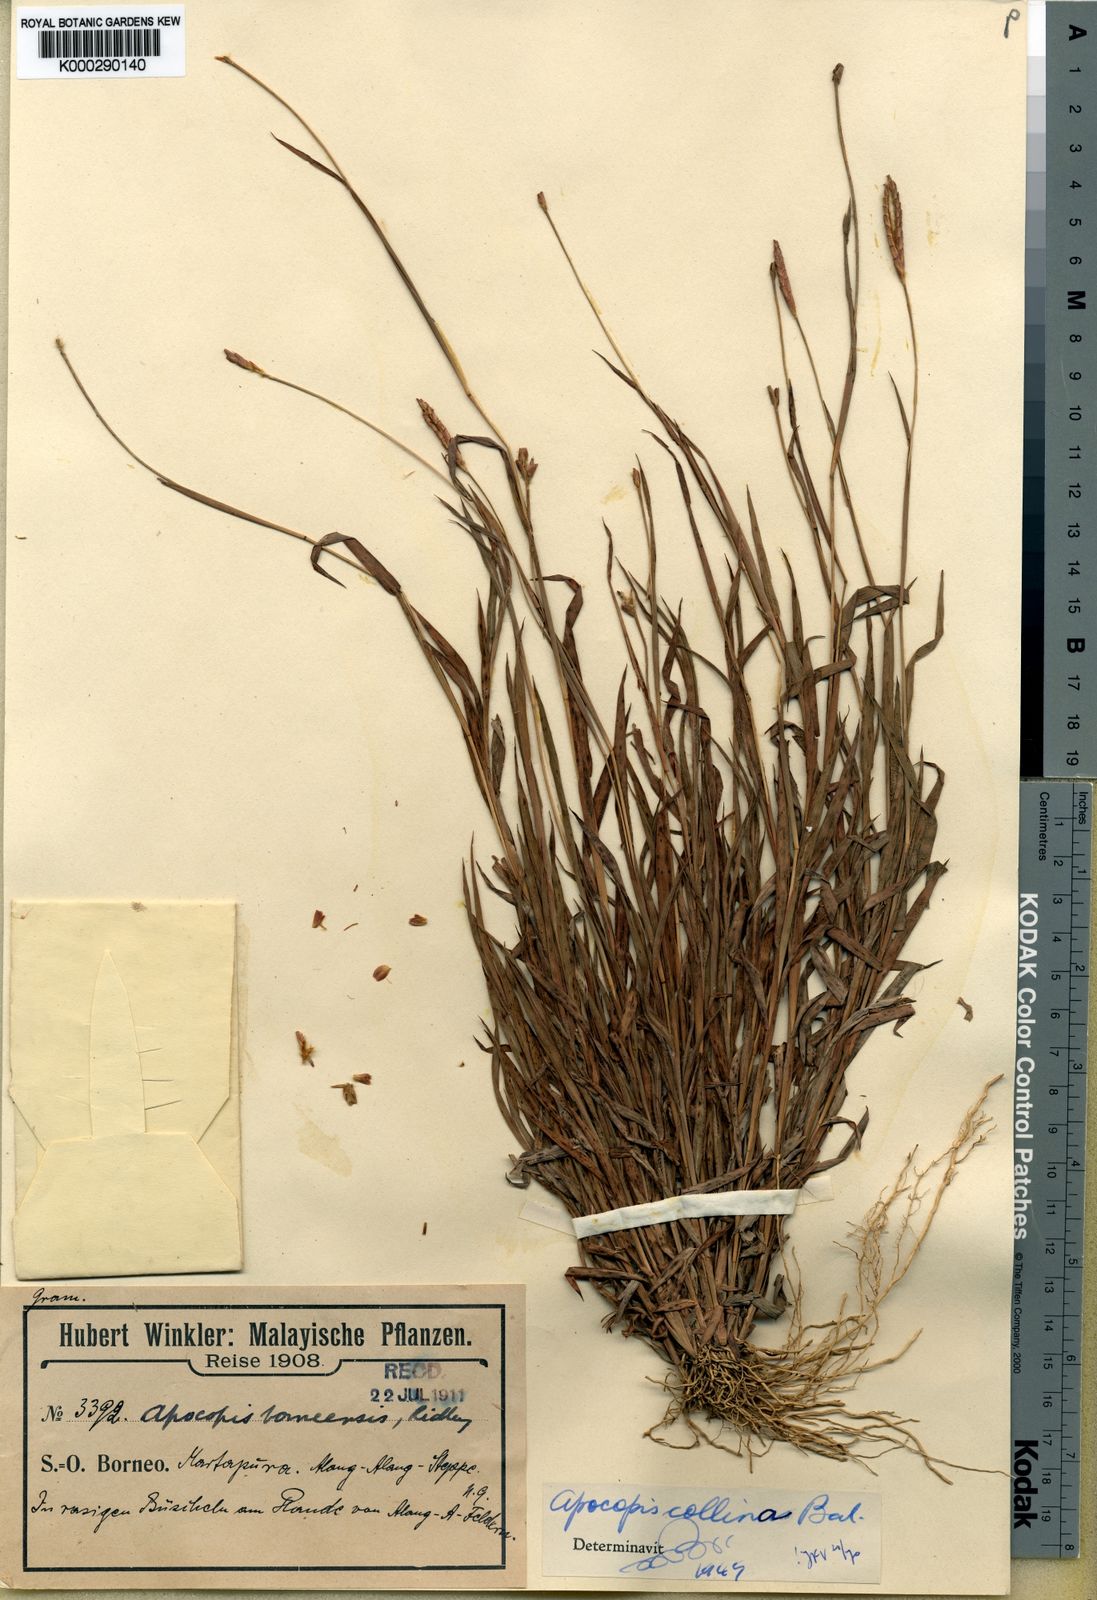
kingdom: Plantae
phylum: Tracheophyta
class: Liliopsida
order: Poales
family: Poaceae
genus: Apocopis
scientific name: Apocopis collinus
